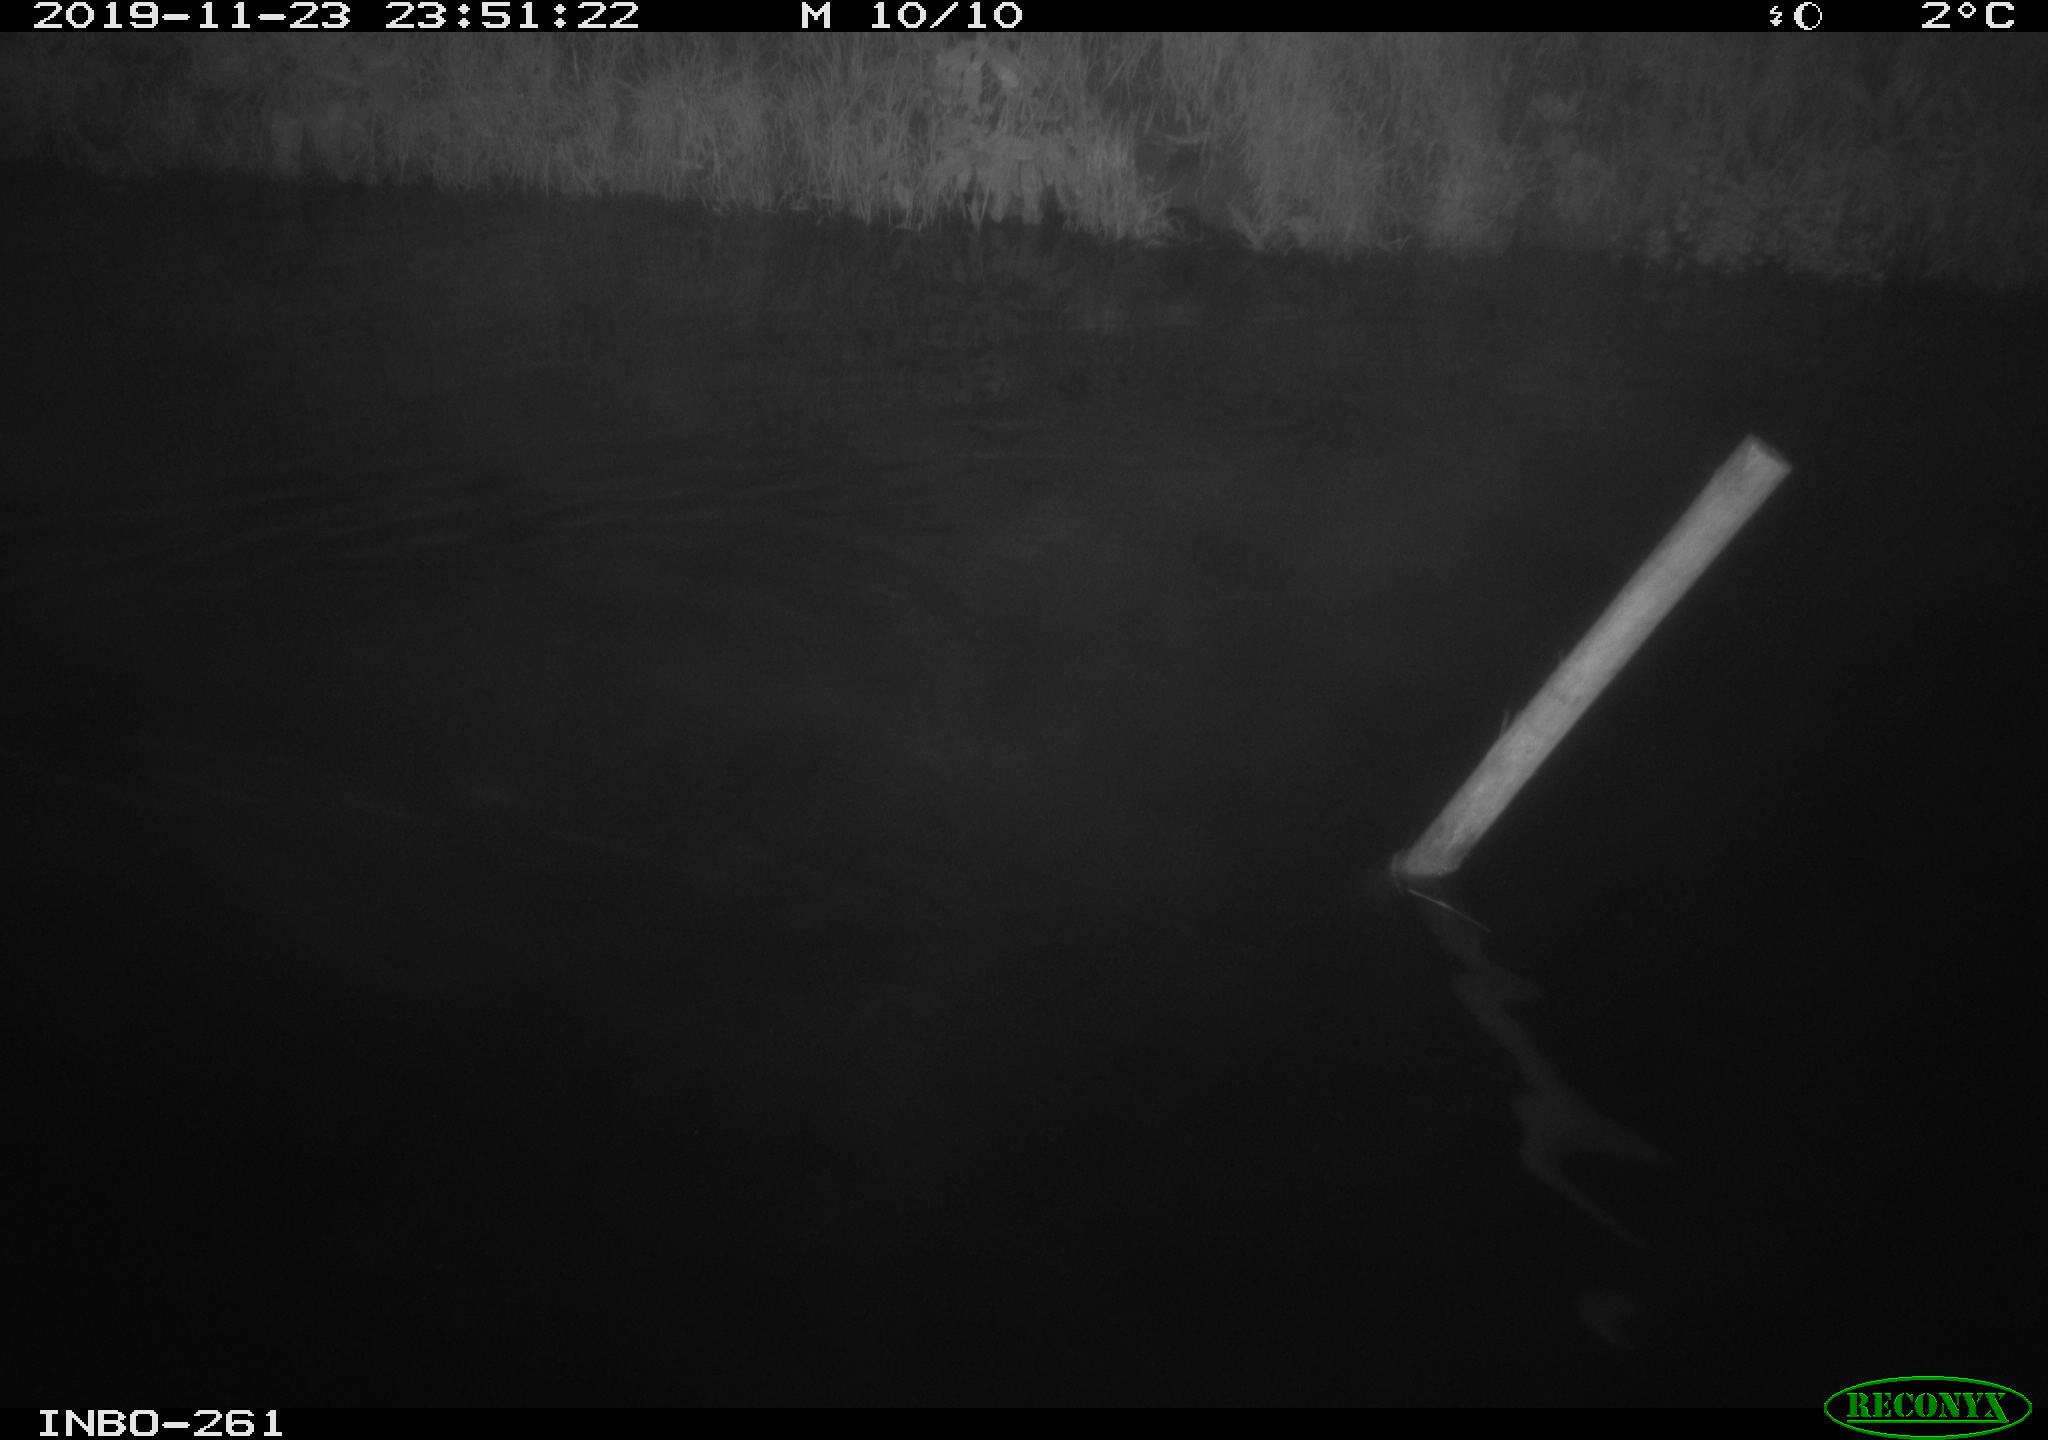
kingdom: Animalia
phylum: Chordata
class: Aves
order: Anseriformes
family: Anatidae
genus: Anas
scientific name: Anas platyrhynchos
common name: Mallard
